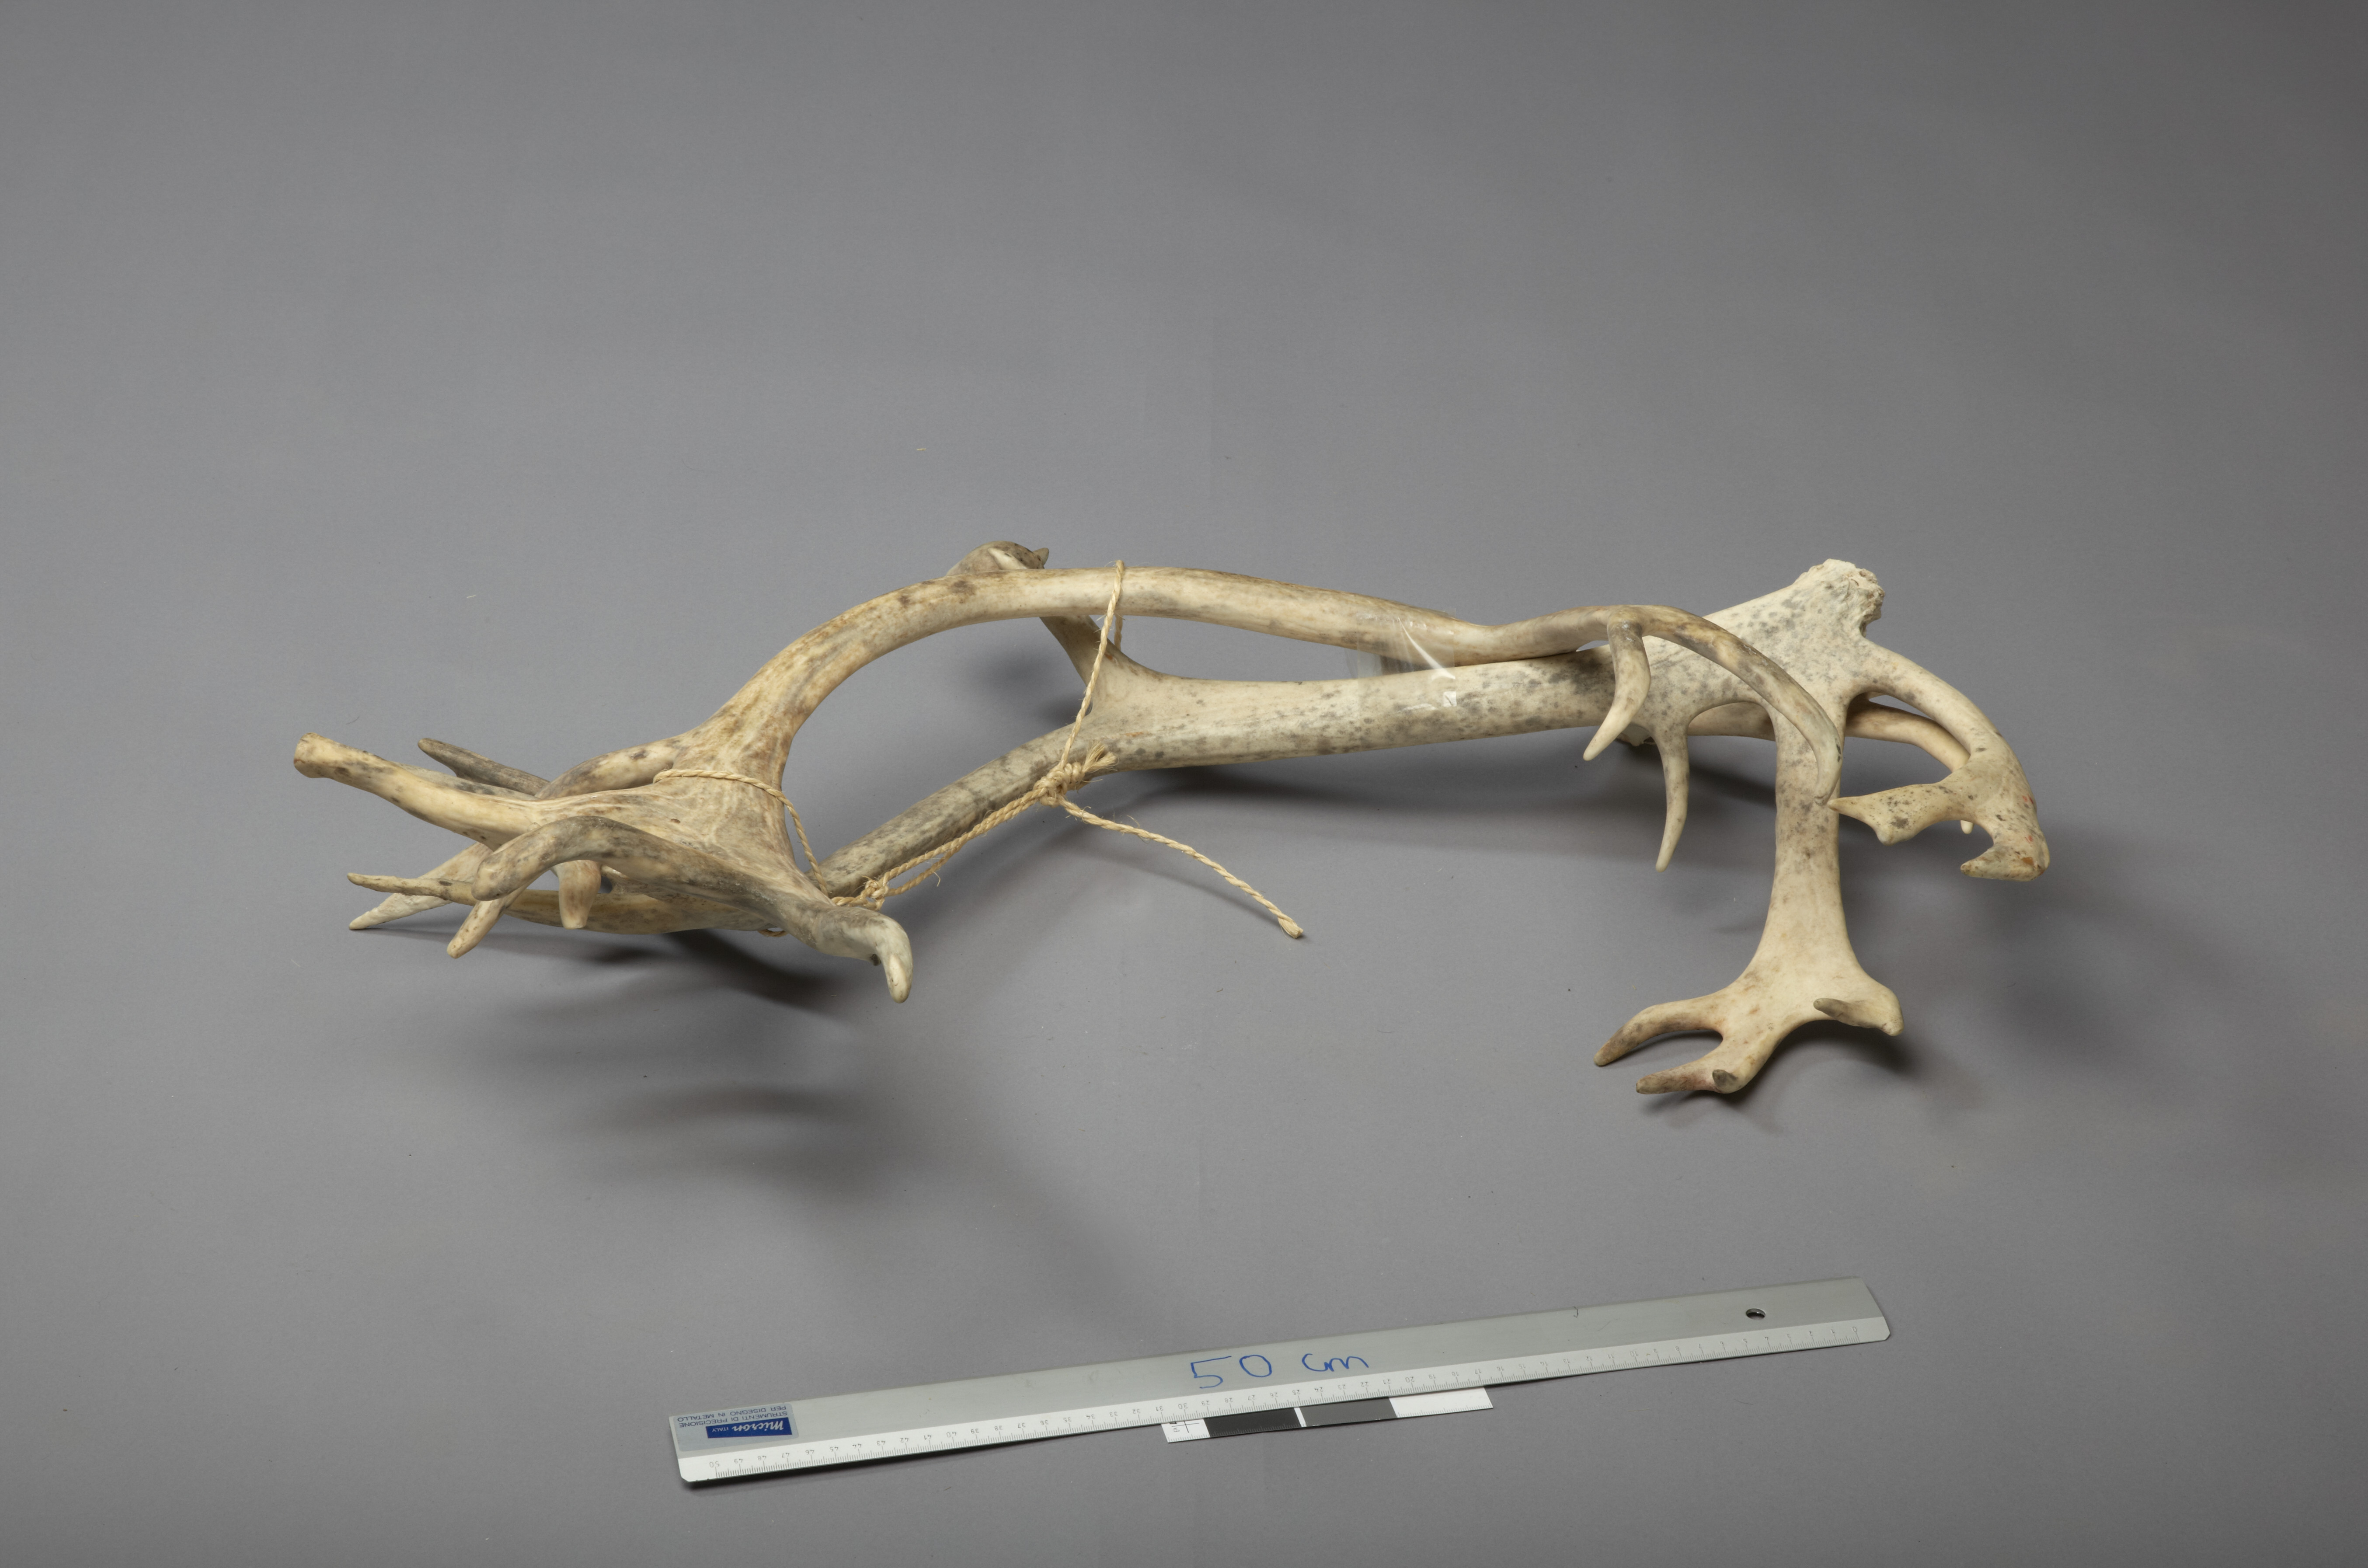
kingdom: Animalia
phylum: Chordata
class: Mammalia
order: Artiodactyla
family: Cervidae
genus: Rangifer
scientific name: Rangifer tarandus
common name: Reindeer
